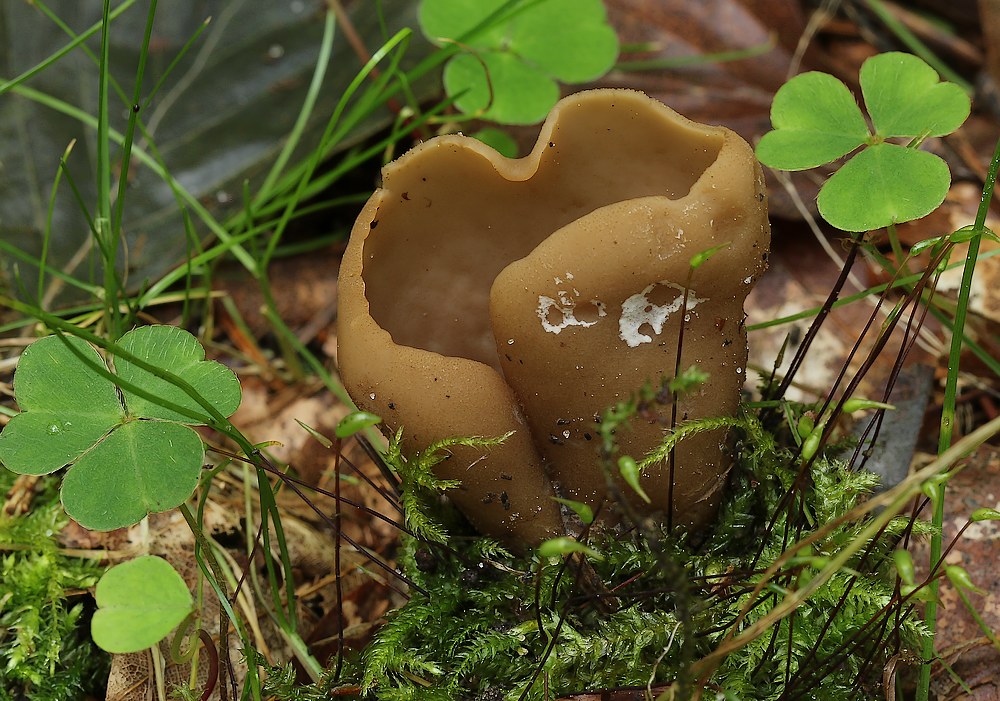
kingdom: Fungi
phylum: Ascomycota
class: Pezizomycetes
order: Pezizales
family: Otideaceae
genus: Otidea
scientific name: Otidea alutacea
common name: læder-ørebæger
